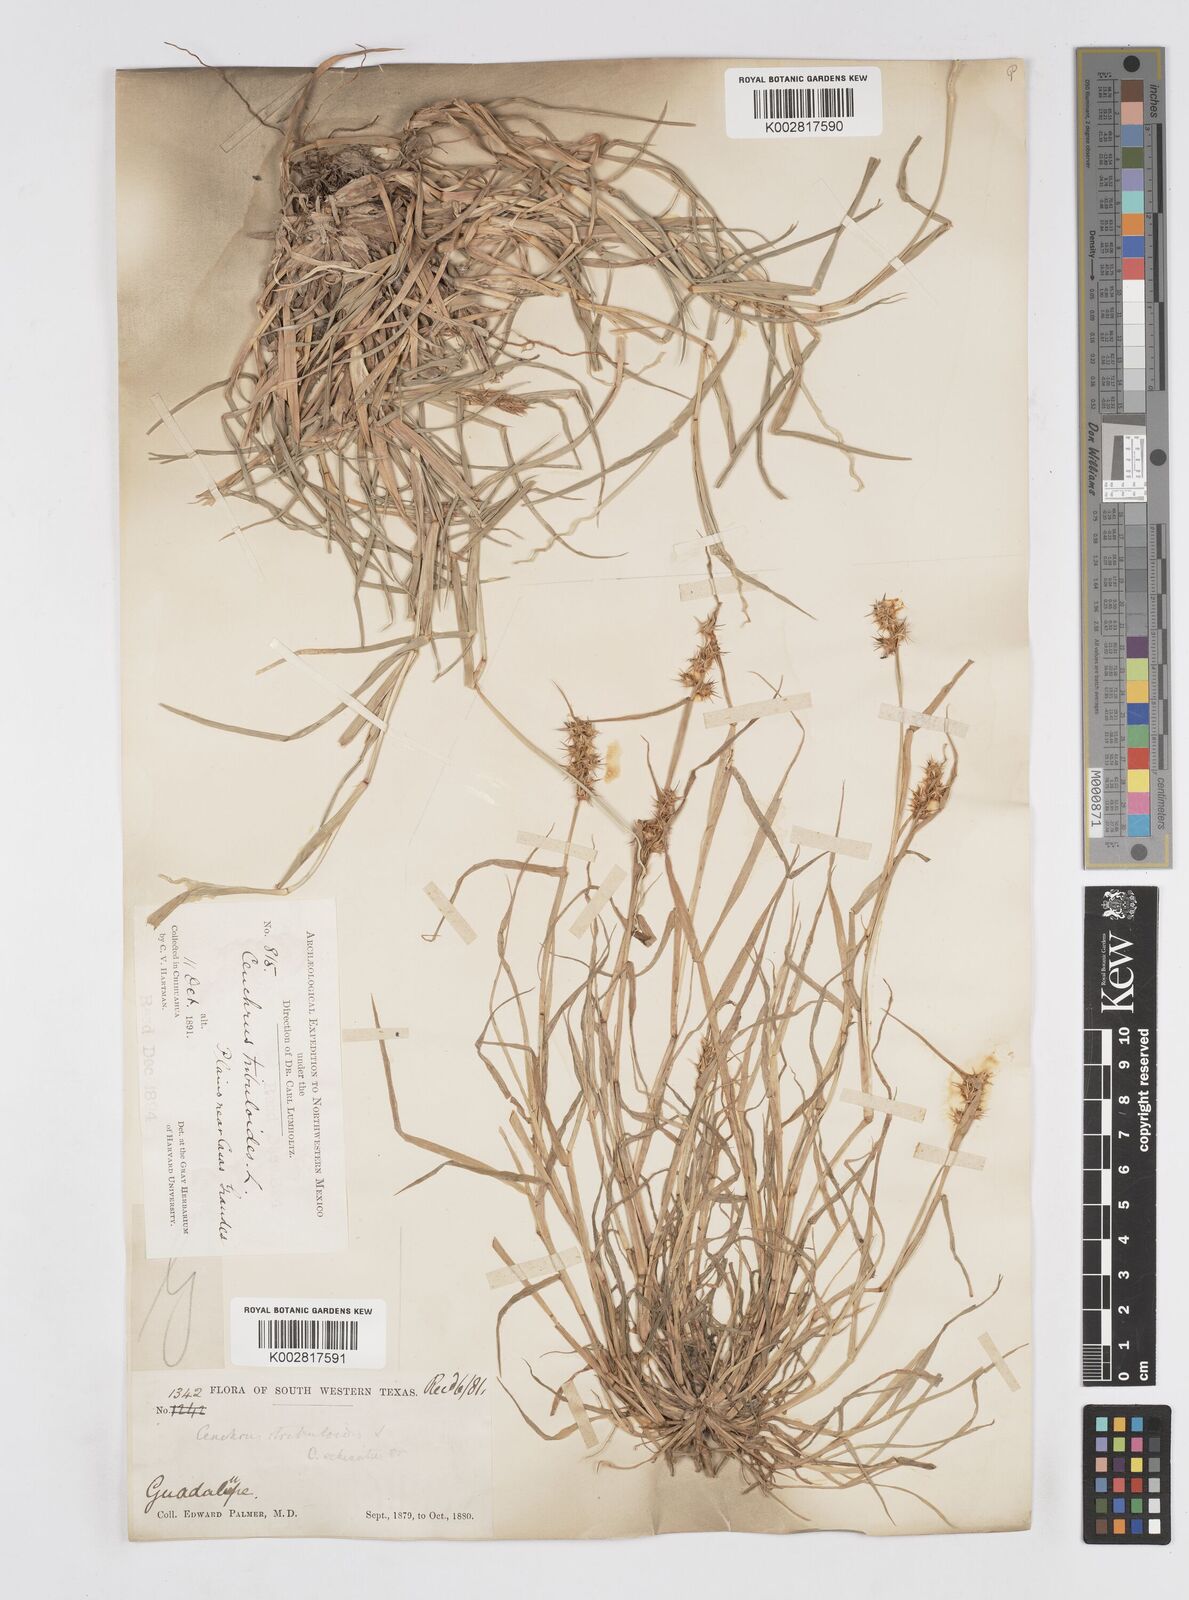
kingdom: Plantae
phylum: Tracheophyta
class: Liliopsida
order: Poales
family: Poaceae
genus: Cenchrus
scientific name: Cenchrus spinifex
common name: Coast sandbur
